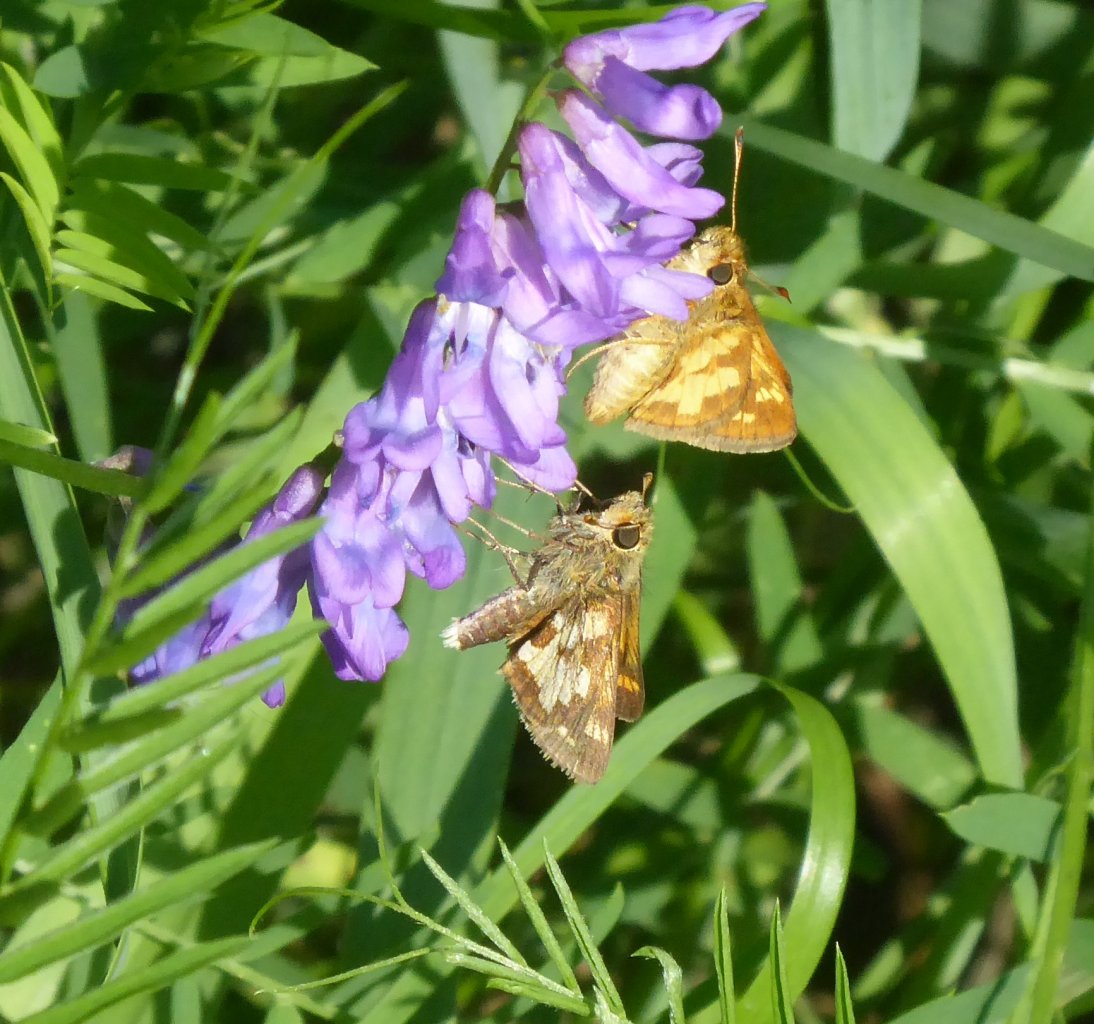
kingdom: Animalia
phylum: Arthropoda
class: Insecta
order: Lepidoptera
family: Hesperiidae
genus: Polites
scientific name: Polites coras
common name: Peck's Skipper
